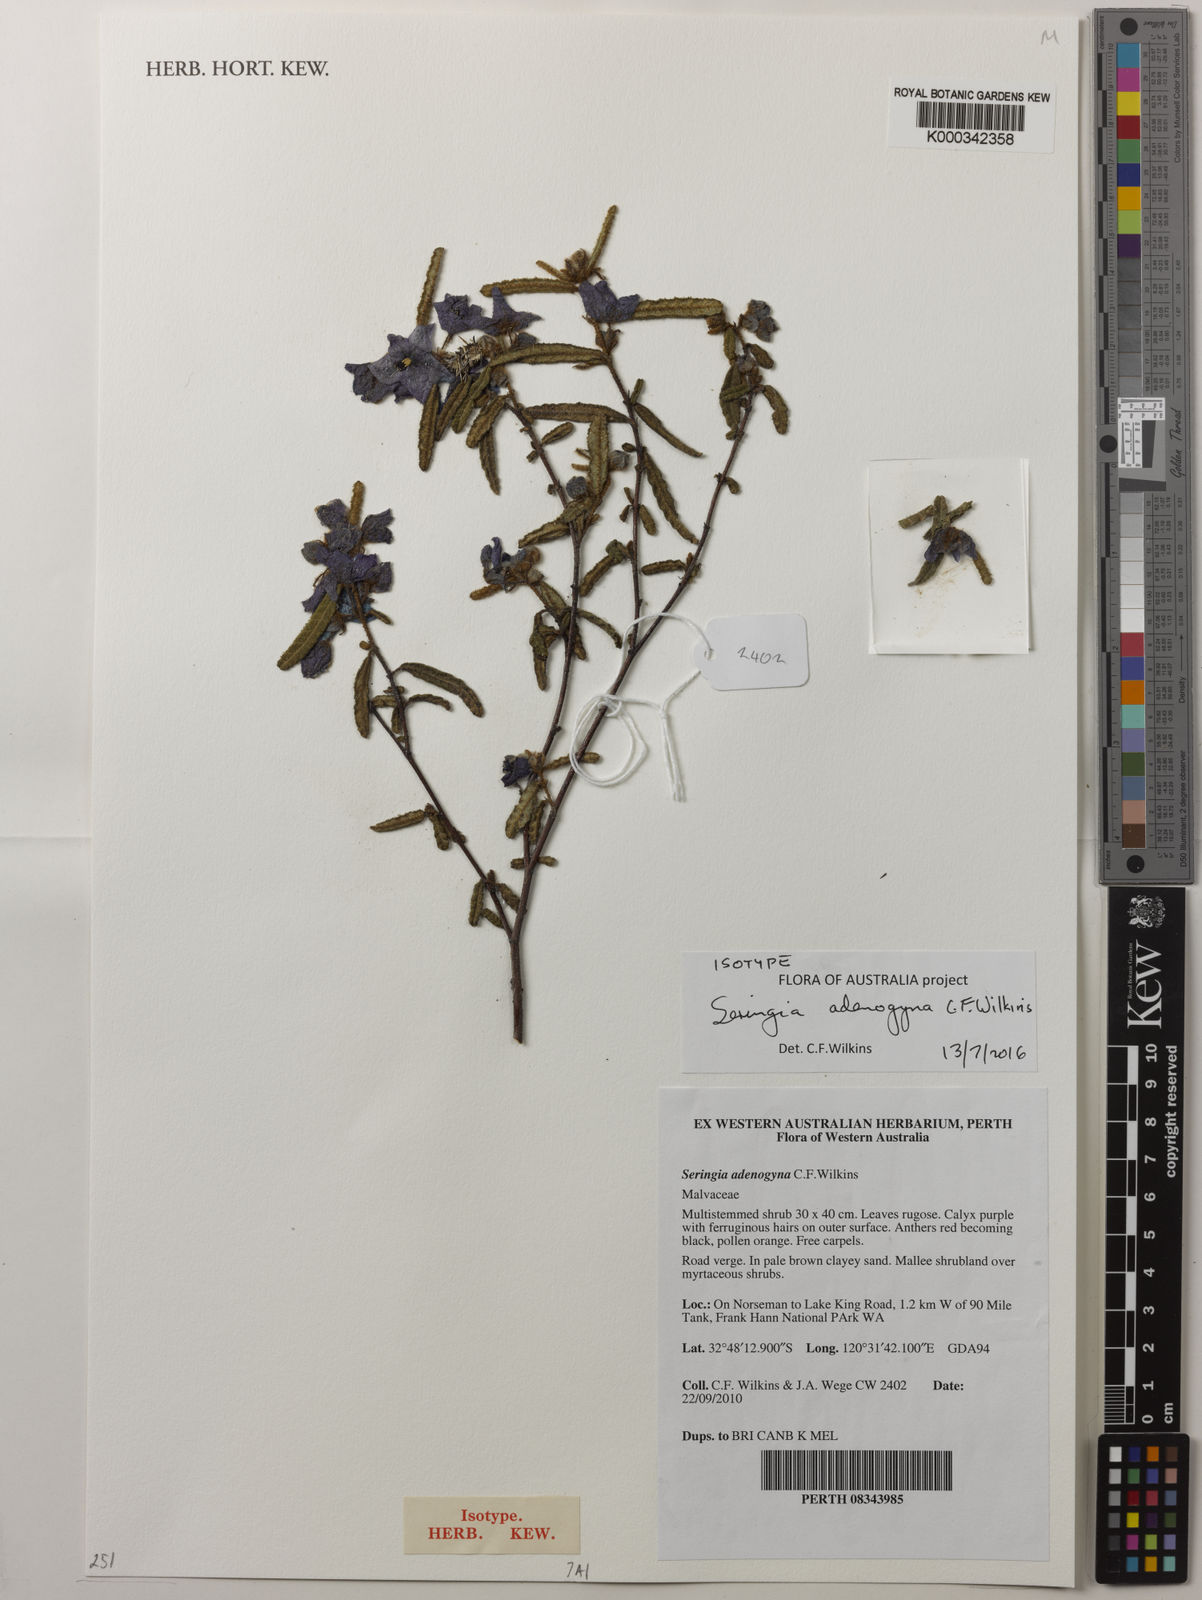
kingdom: Plantae
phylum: Tracheophyta
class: Magnoliopsida
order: Malvales
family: Malvaceae
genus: Seringia
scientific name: Seringia adenogyna
